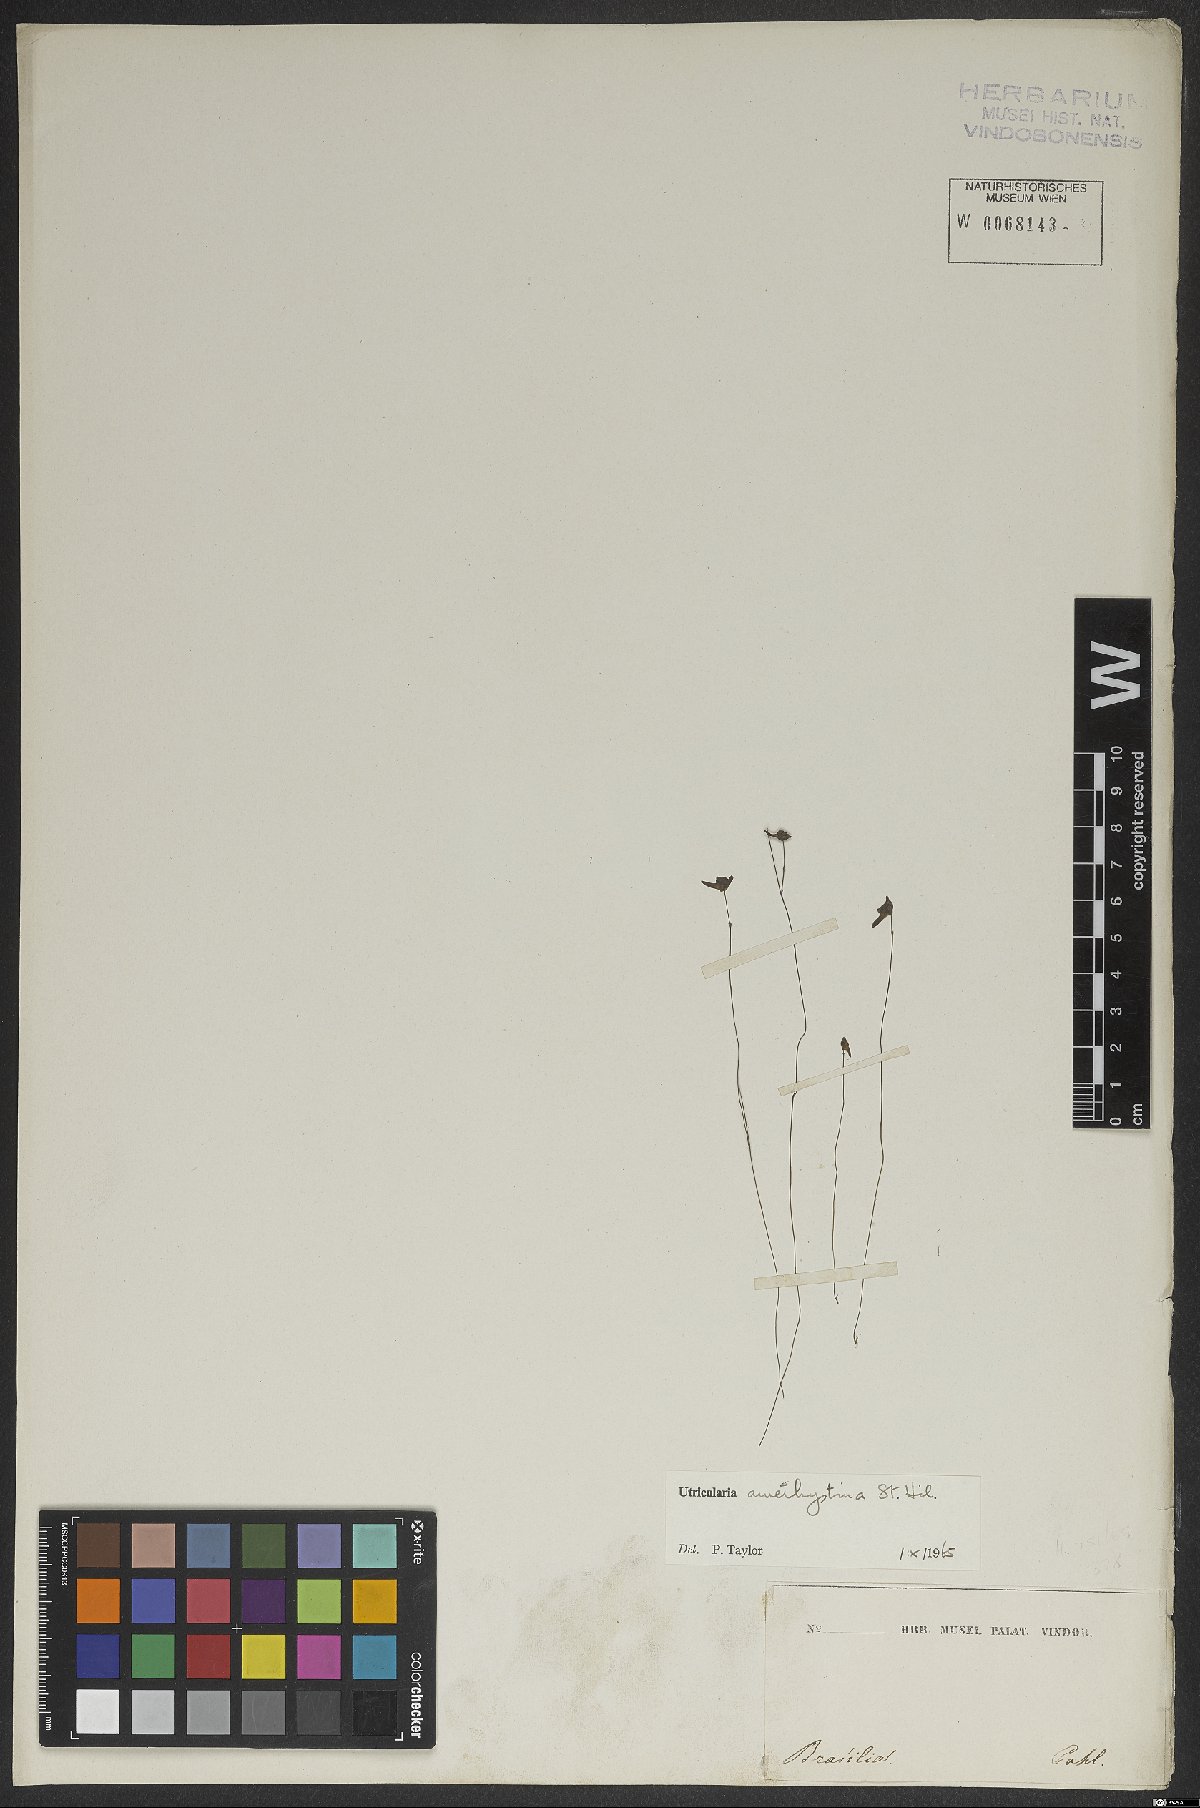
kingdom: Plantae
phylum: Tracheophyta
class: Magnoliopsida
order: Lamiales
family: Lentibulariaceae
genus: Utricularia
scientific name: Utricularia amethystina
